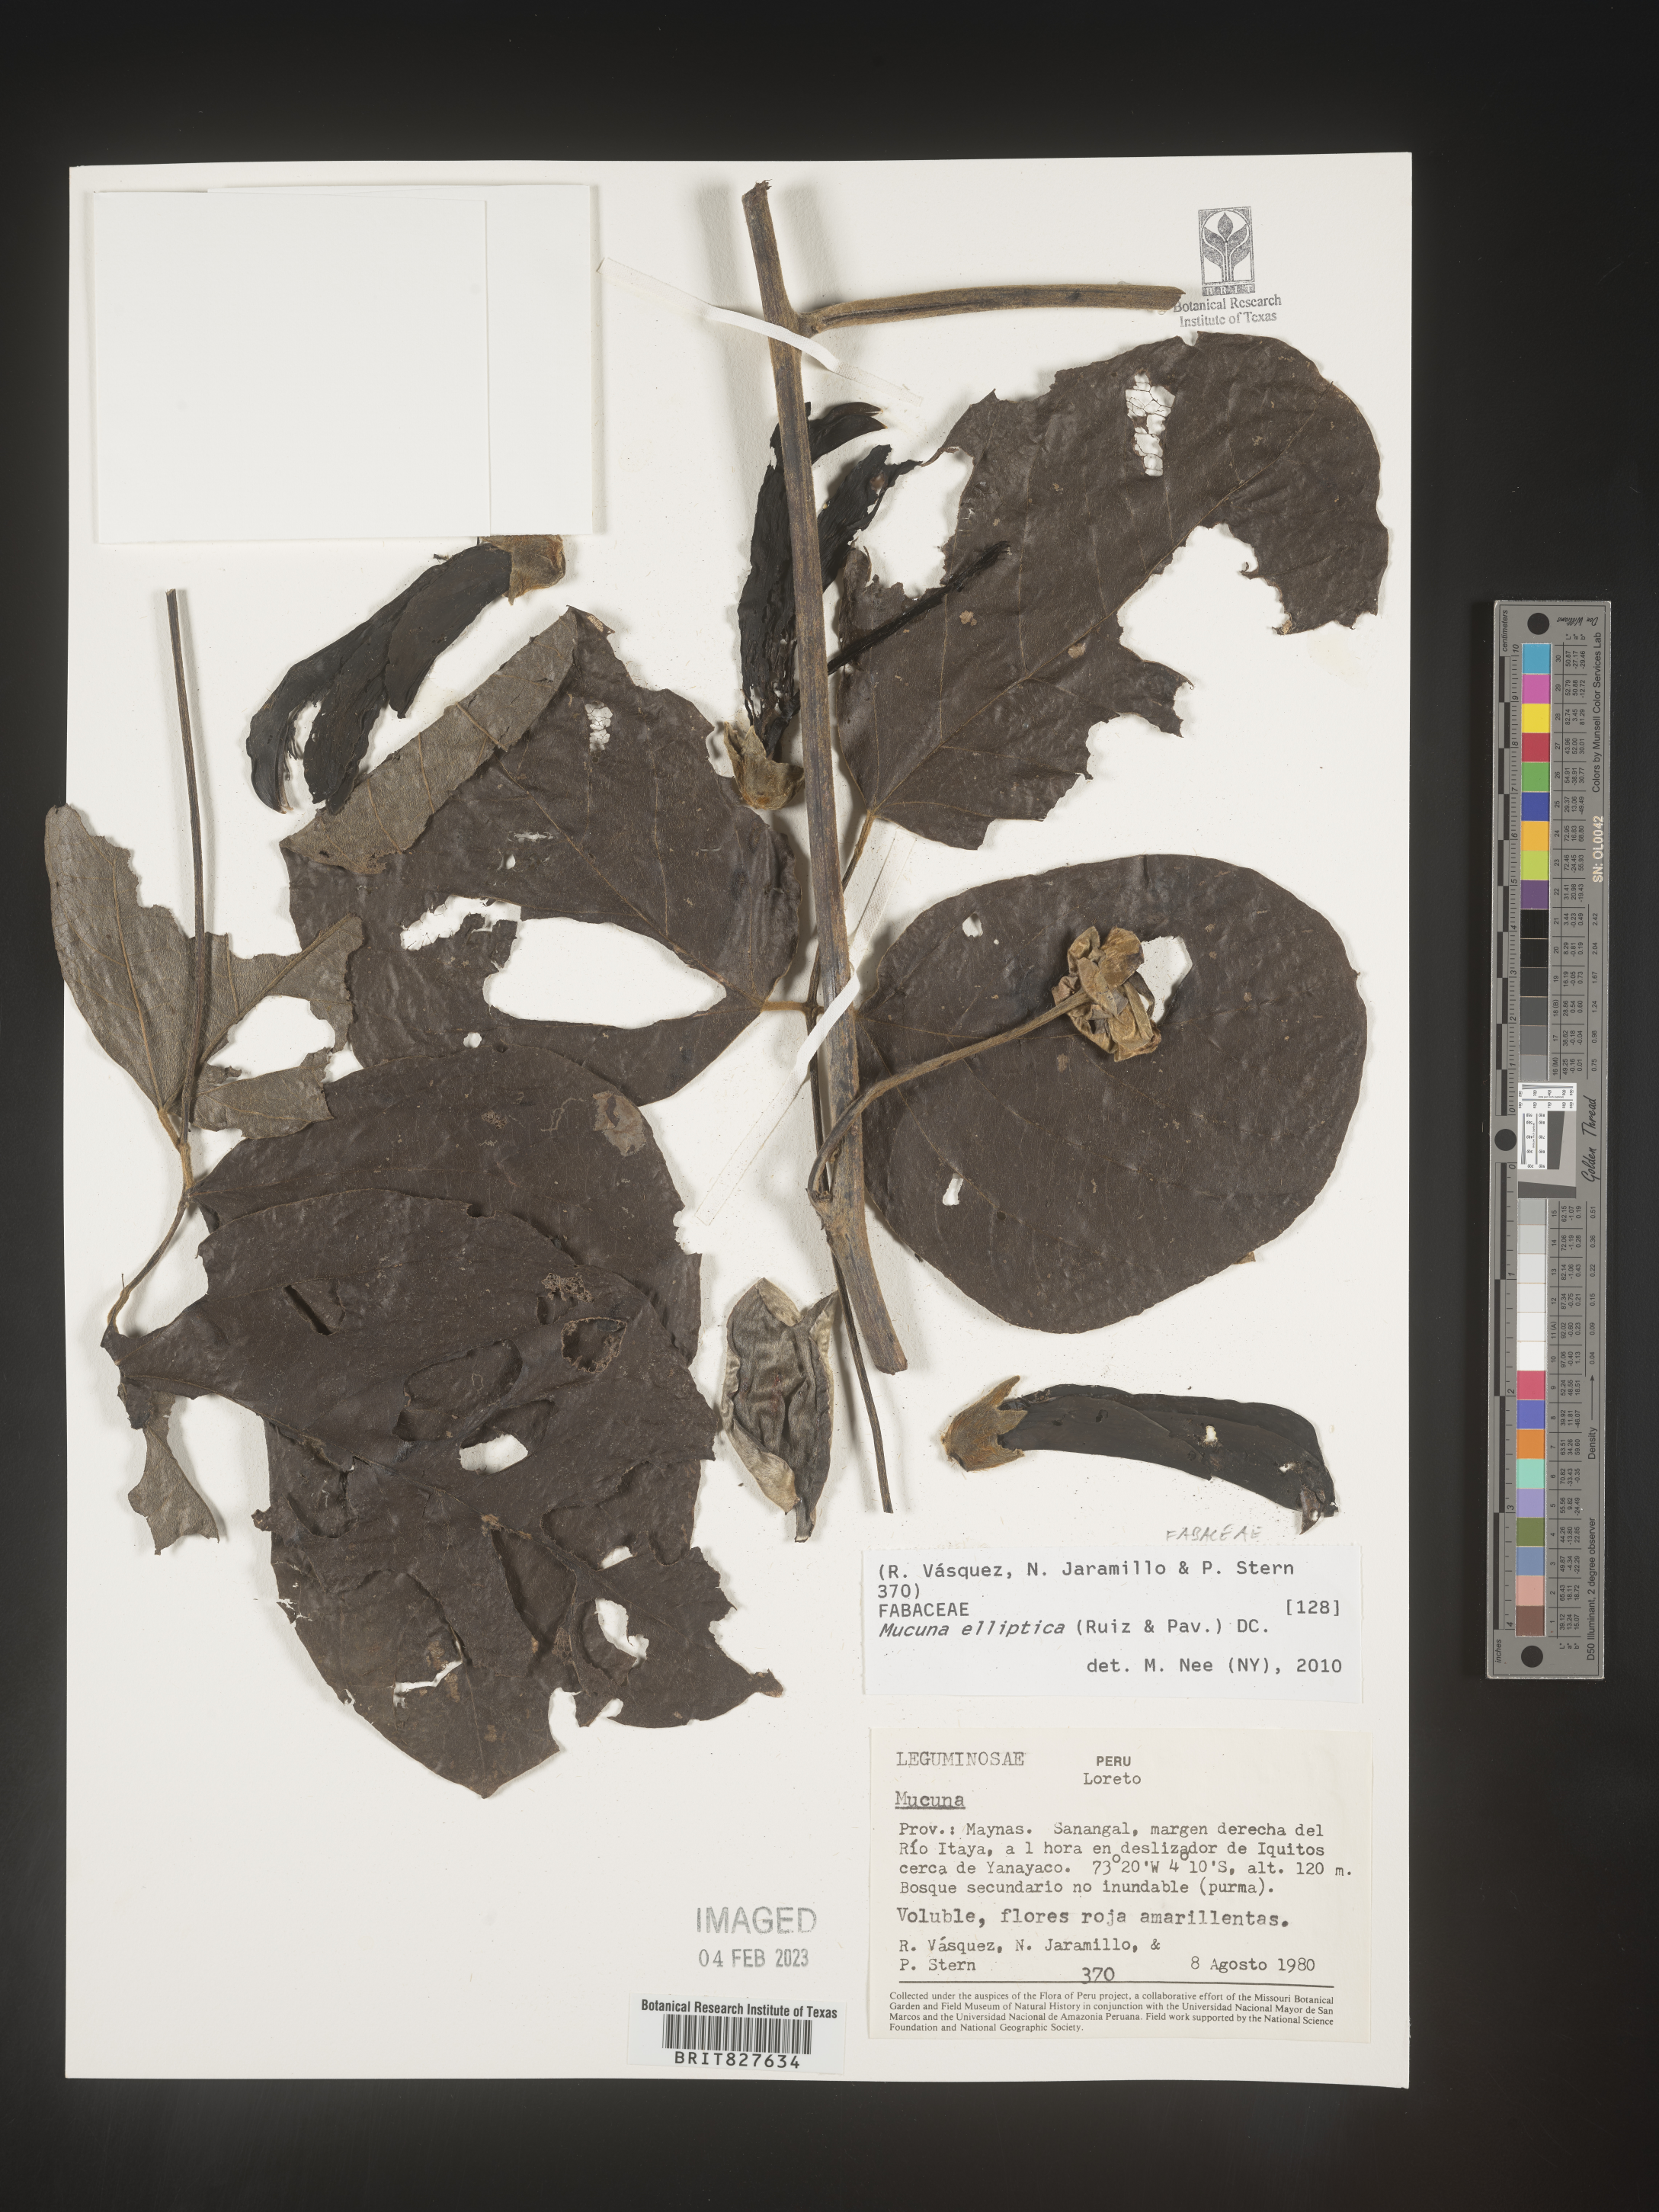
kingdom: Plantae
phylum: Tracheophyta
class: Magnoliopsida
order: Fabales
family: Fabaceae
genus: Mucuna
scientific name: Mucuna
